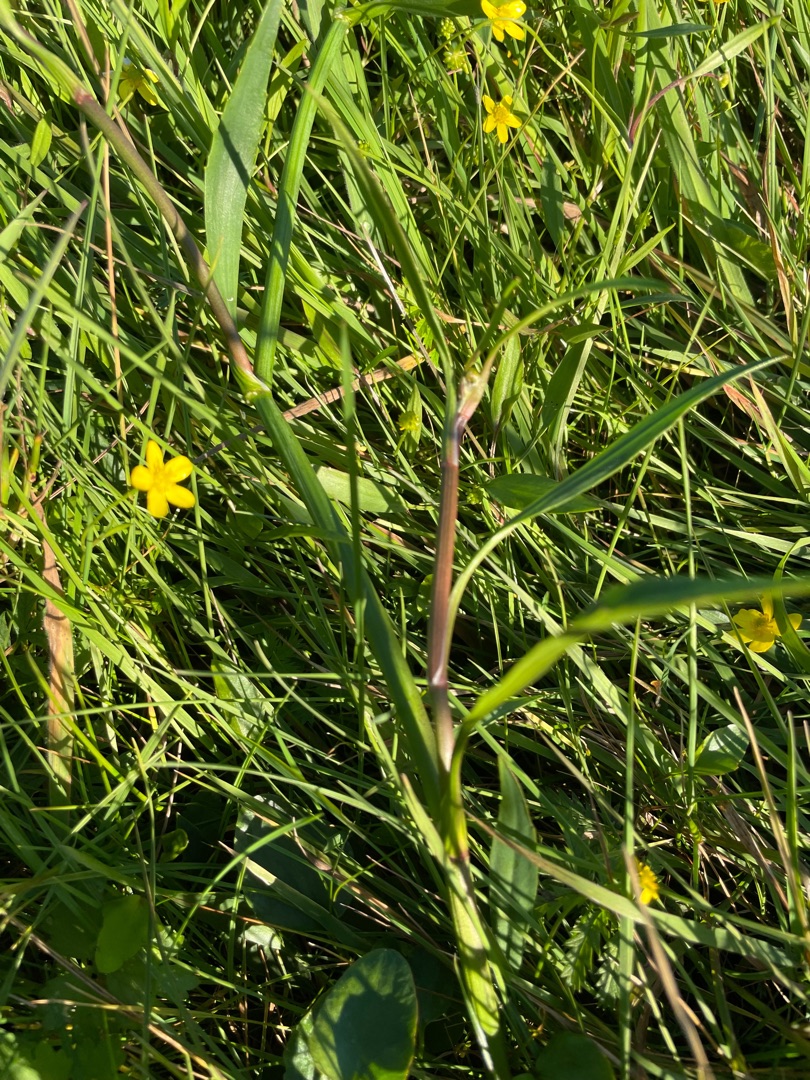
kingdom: Plantae
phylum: Tracheophyta
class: Magnoliopsida
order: Ranunculales
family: Ranunculaceae
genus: Ranunculus
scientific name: Ranunculus flammula
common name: Kær-ranunkel
